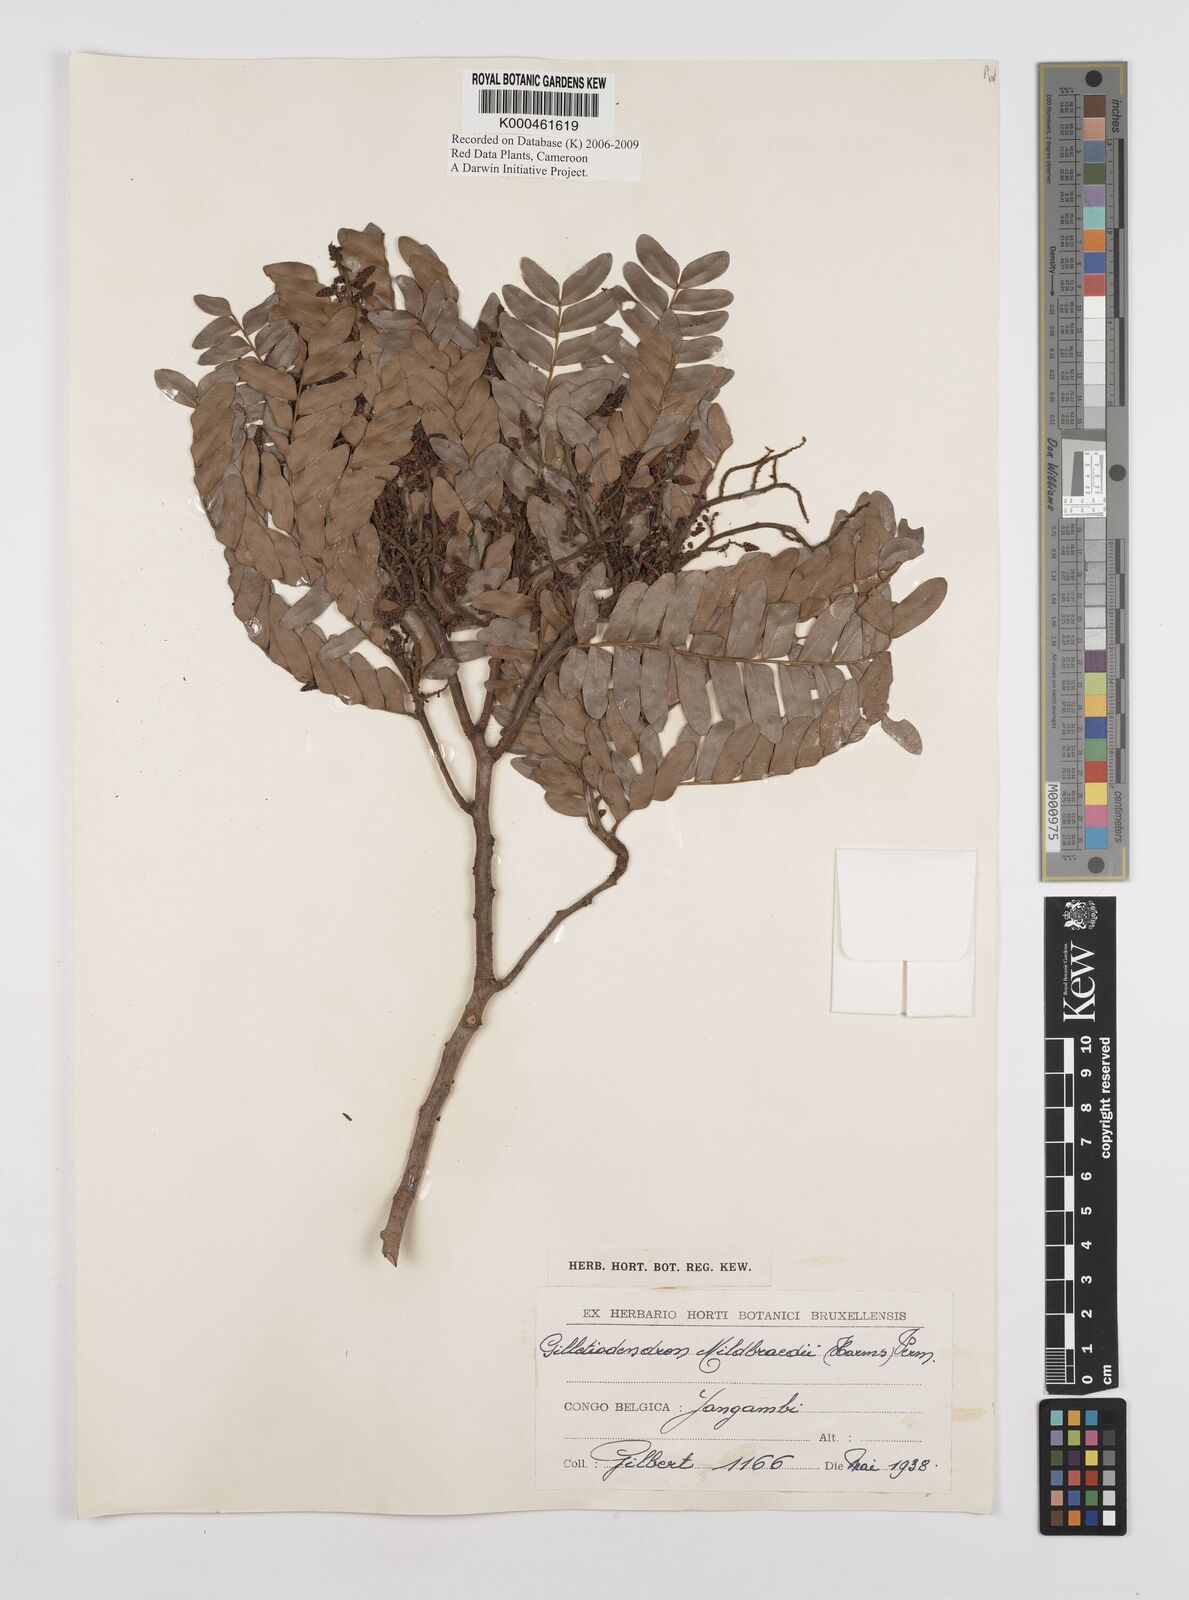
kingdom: Plantae
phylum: Tracheophyta
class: Magnoliopsida
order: Fabales
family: Fabaceae
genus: Gilletiodendron
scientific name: Gilletiodendron mildbraedii
